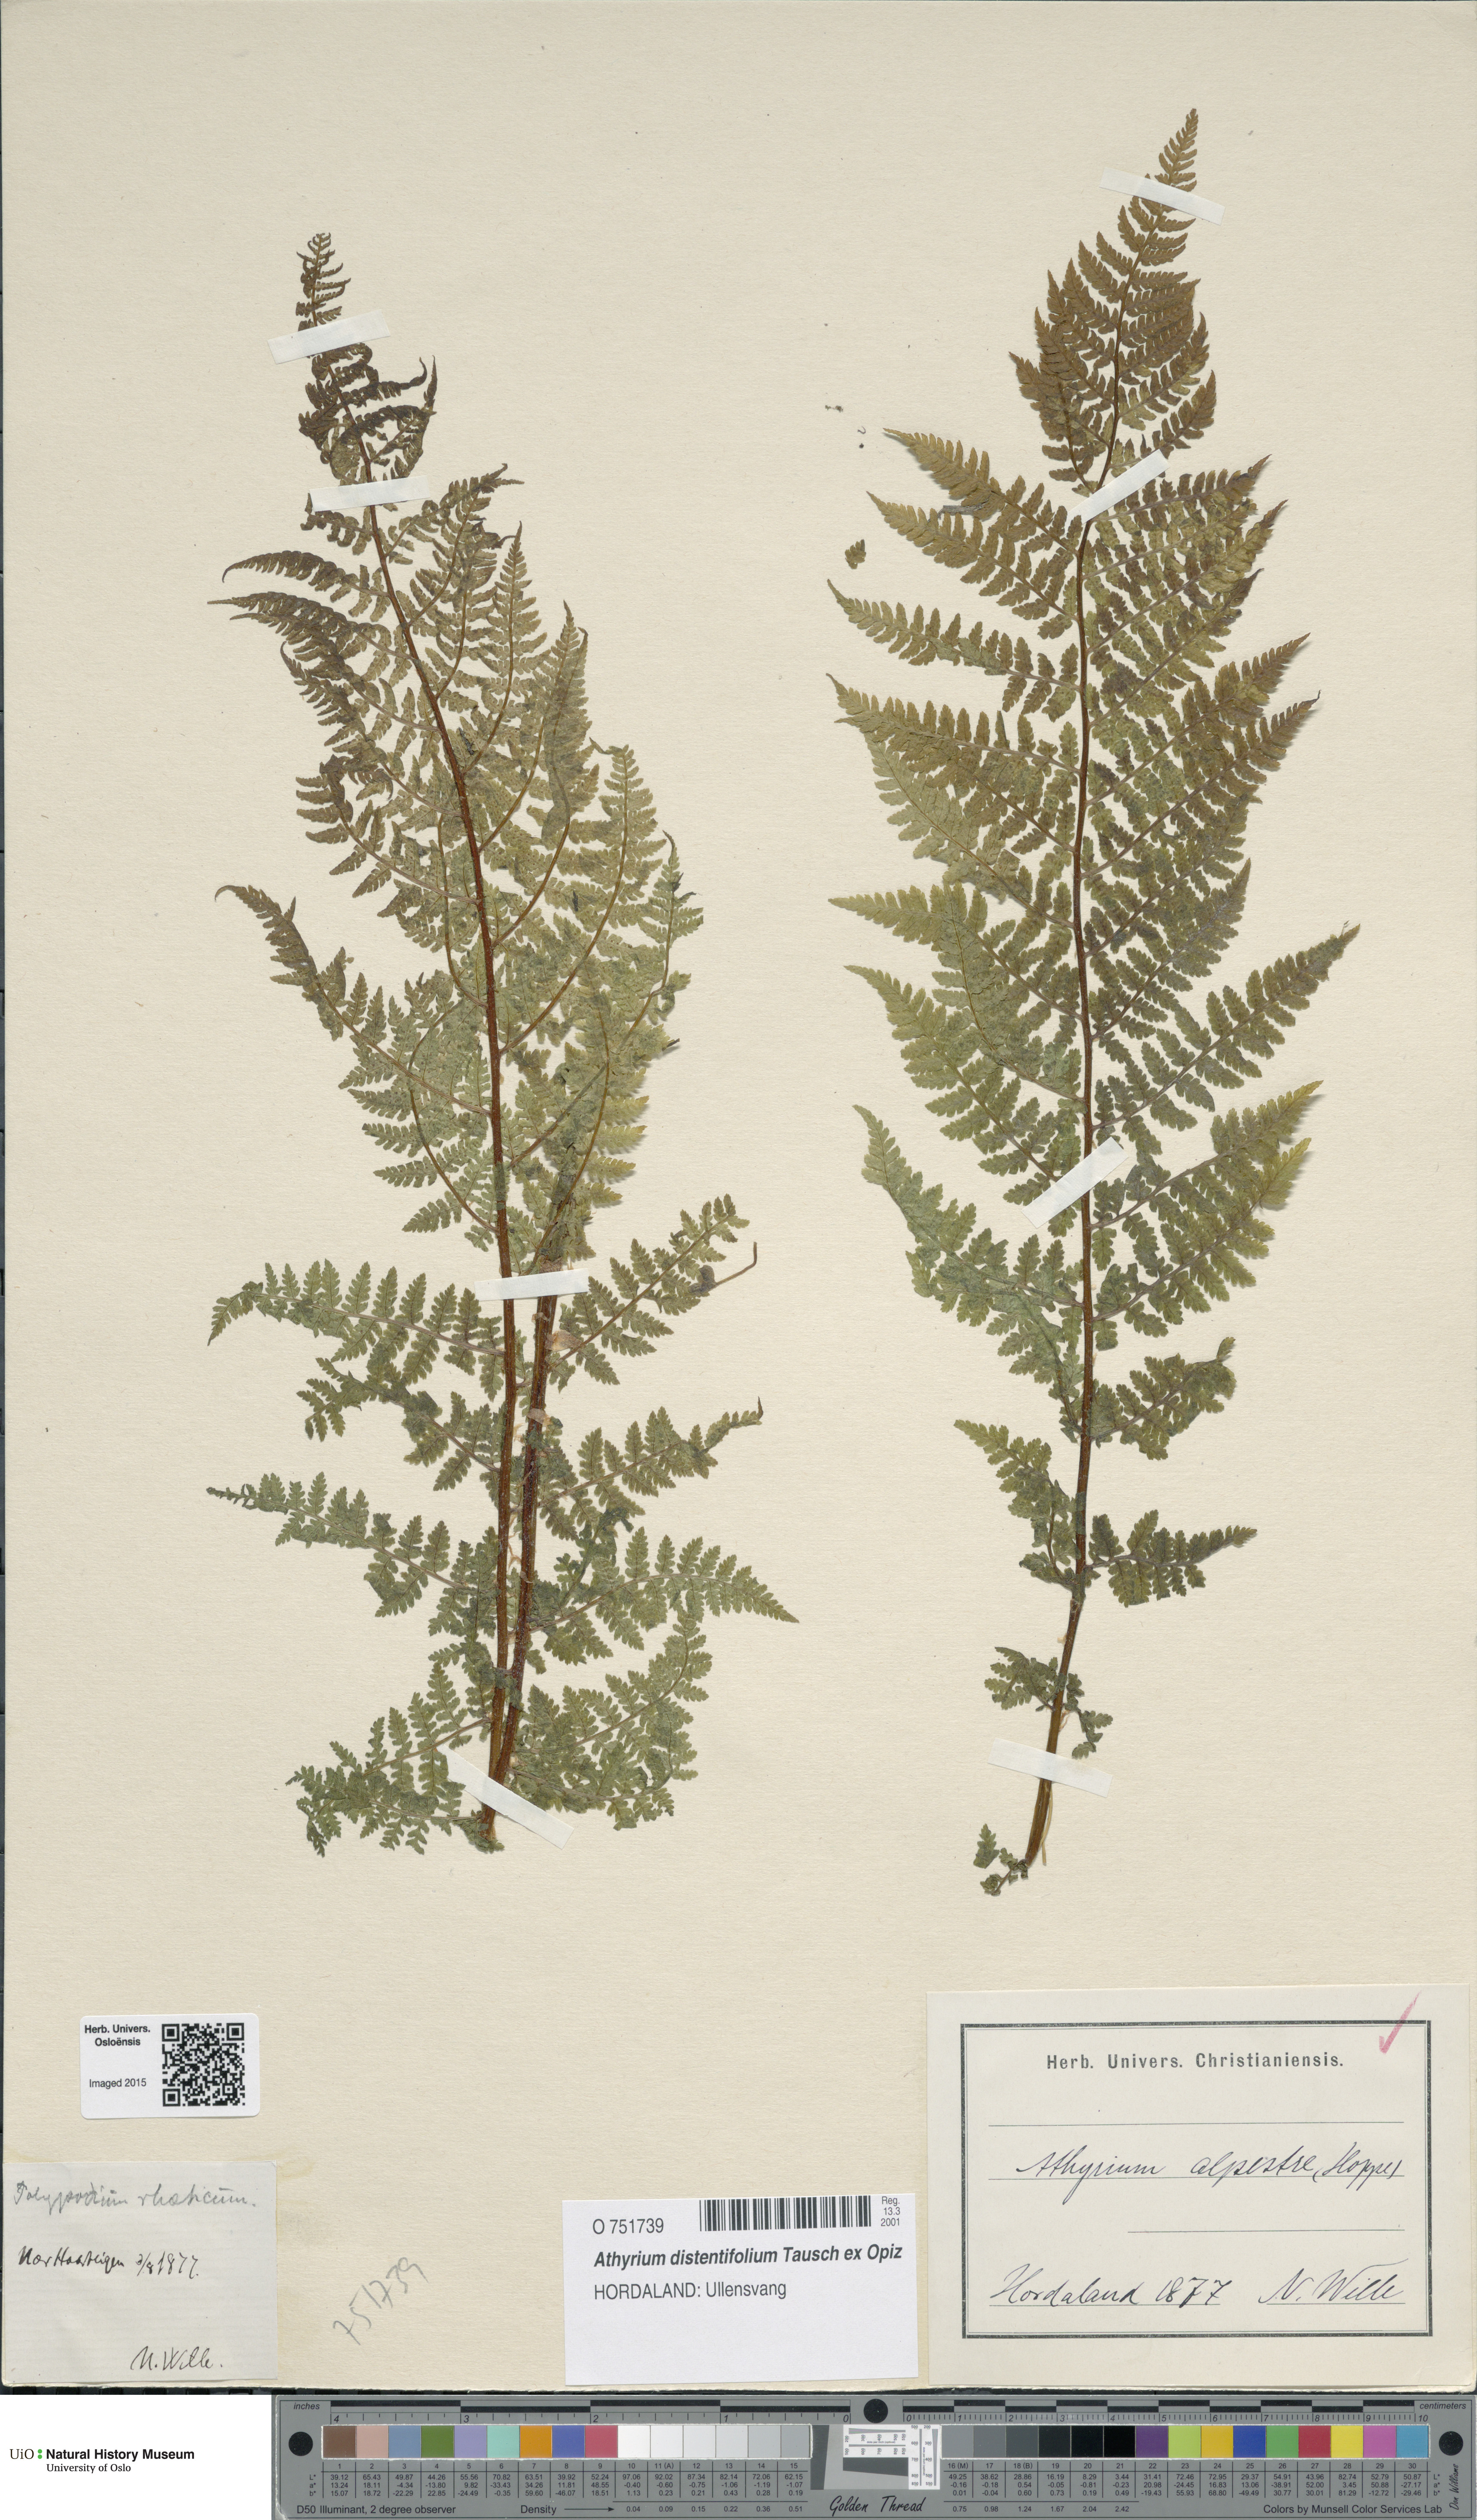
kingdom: Plantae
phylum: Tracheophyta
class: Polypodiopsida
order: Polypodiales
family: Athyriaceae
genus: Pseudathyrium
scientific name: Pseudathyrium alpestre
